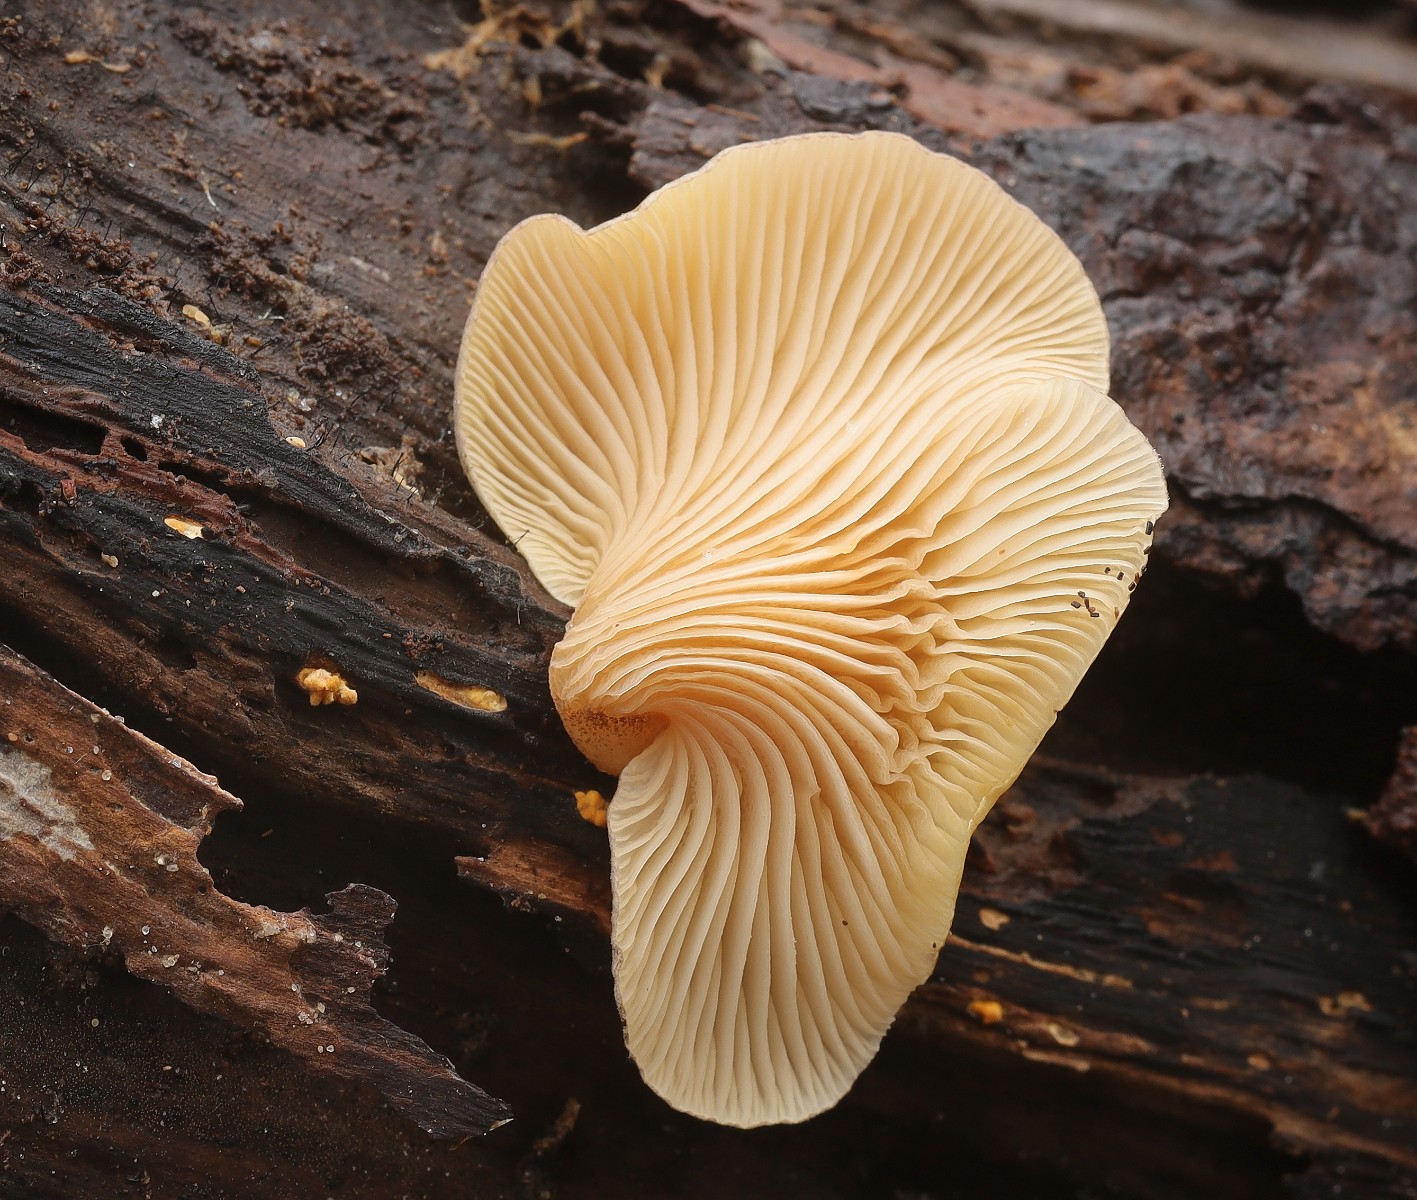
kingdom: Fungi
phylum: Basidiomycota
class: Agaricomycetes
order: Agaricales
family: Sarcomyxaceae
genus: Sarcomyxa
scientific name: Sarcomyxa serotina
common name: gummihat
